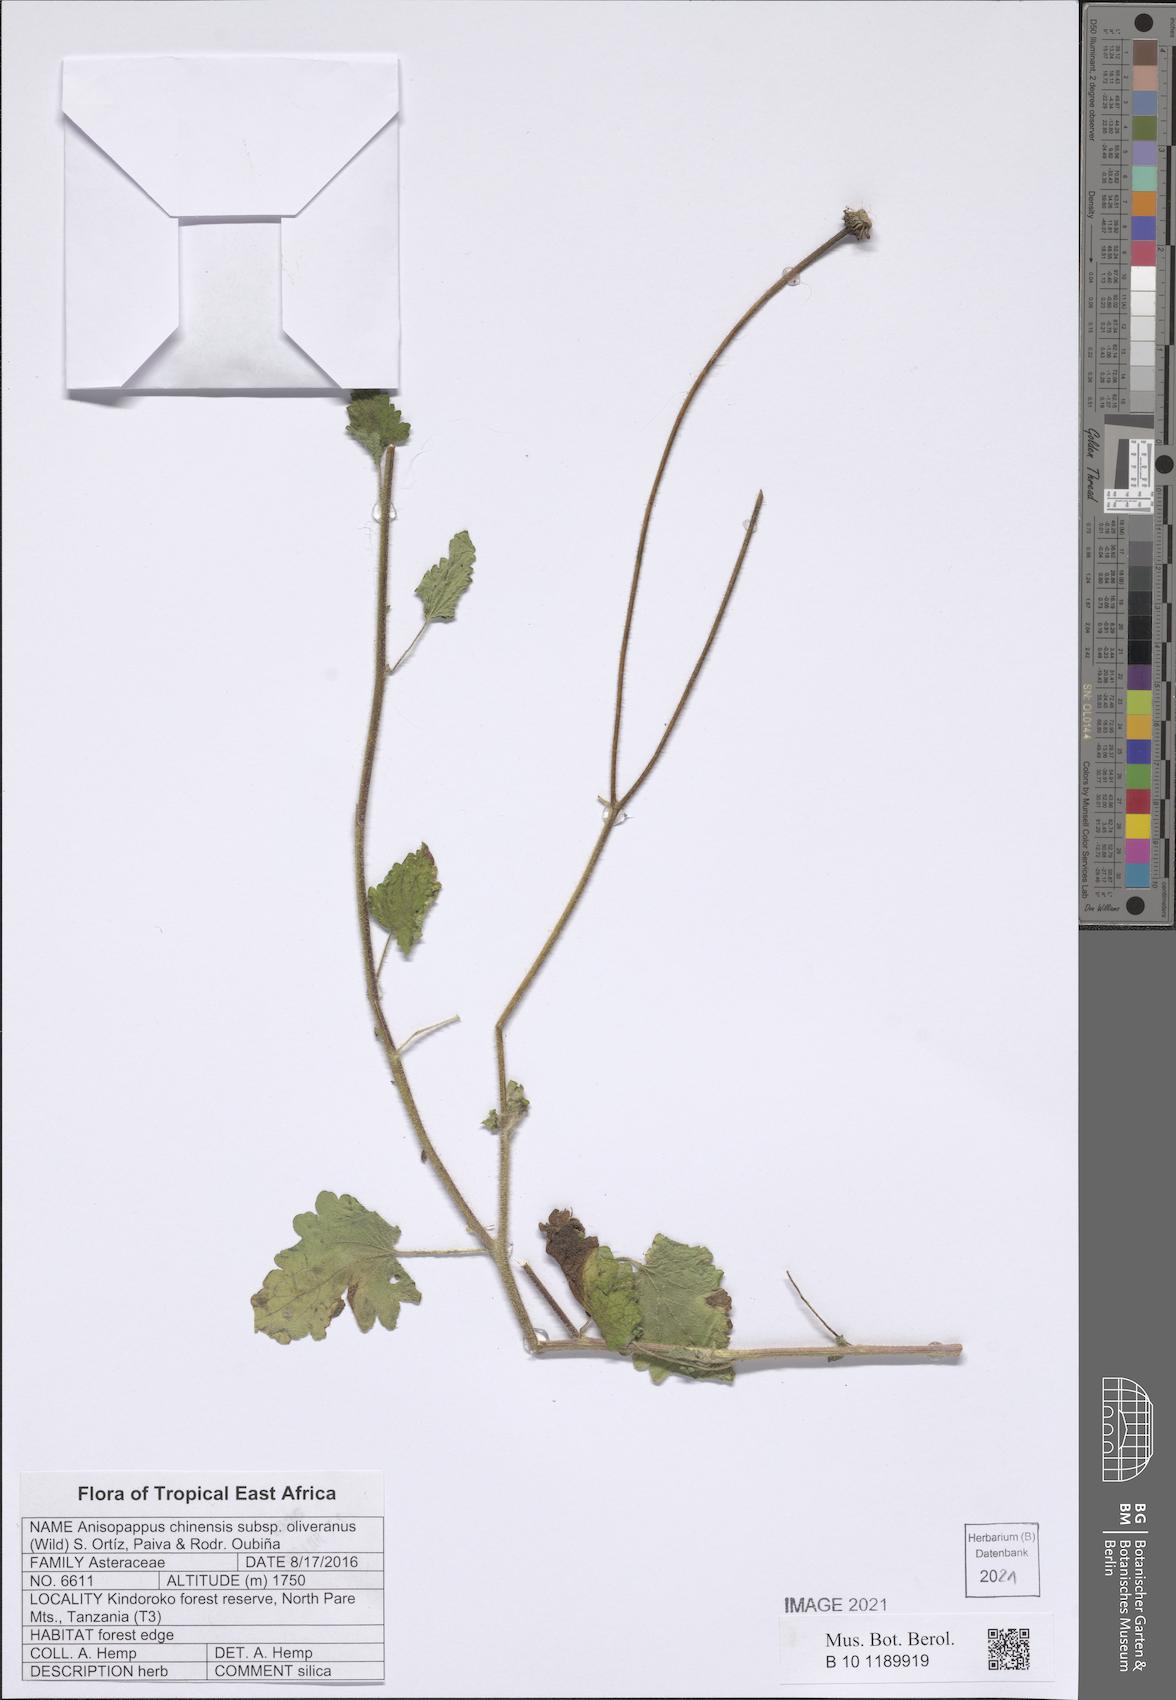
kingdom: Plantae
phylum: Tracheophyta
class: Magnoliopsida
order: Asterales
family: Asteraceae
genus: Anisopappus
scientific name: Anisopappus oliverianus
